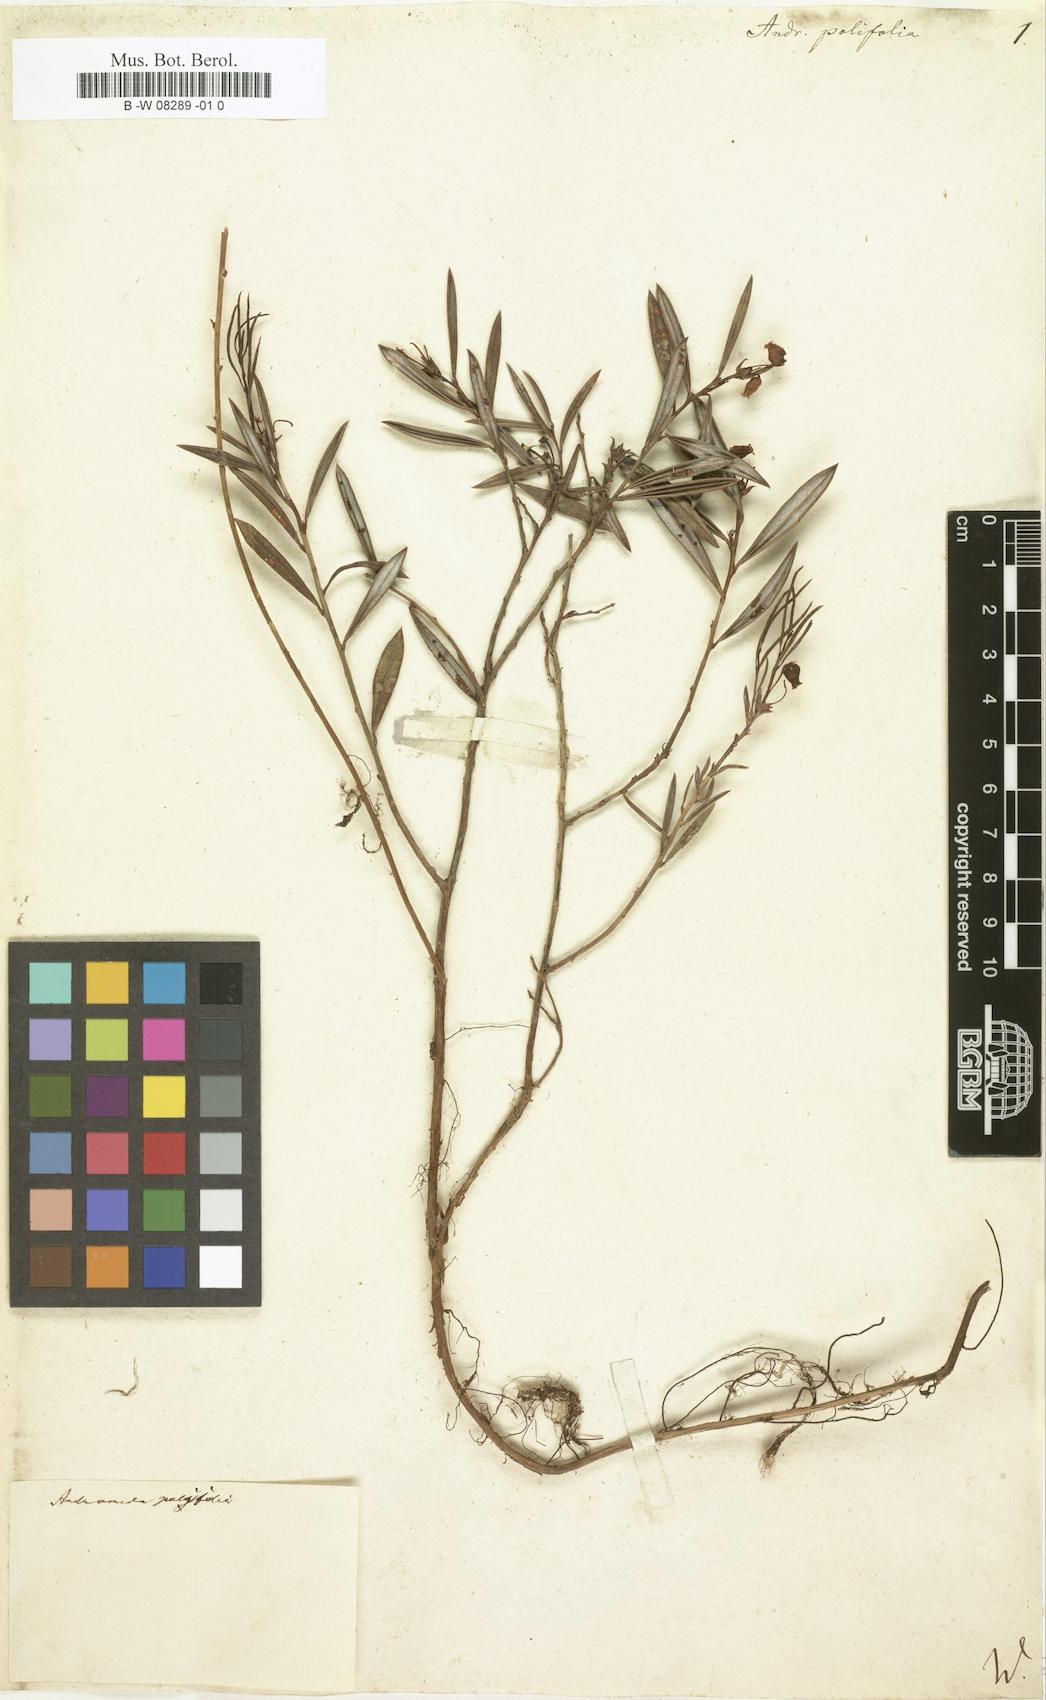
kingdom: Plantae
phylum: Tracheophyta
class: Magnoliopsida
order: Ericales
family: Ericaceae
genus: Andromeda
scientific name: Andromeda polifolia
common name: Bog-rosemary
